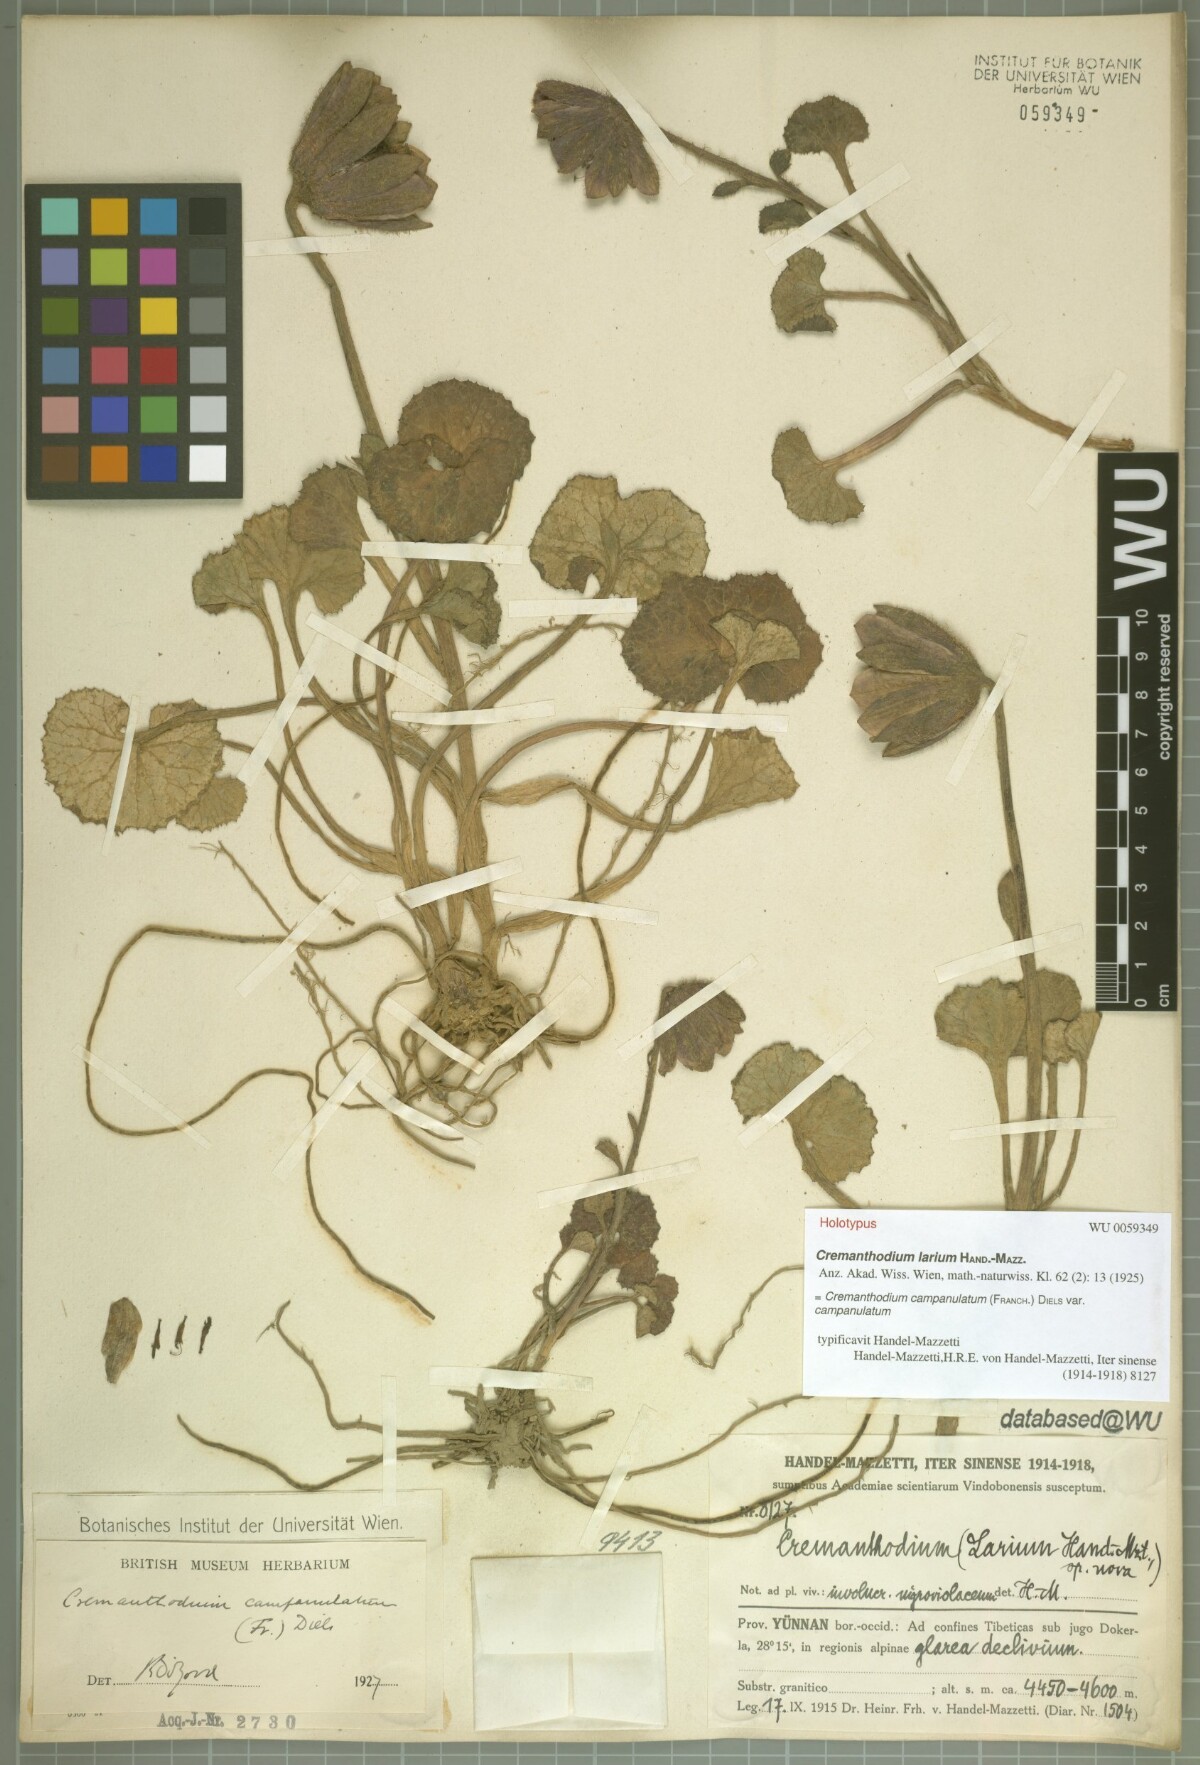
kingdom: Plantae
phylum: Tracheophyta
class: Magnoliopsida
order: Asterales
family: Asteraceae
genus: Cremanthodium
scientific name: Cremanthodium campanulatum
